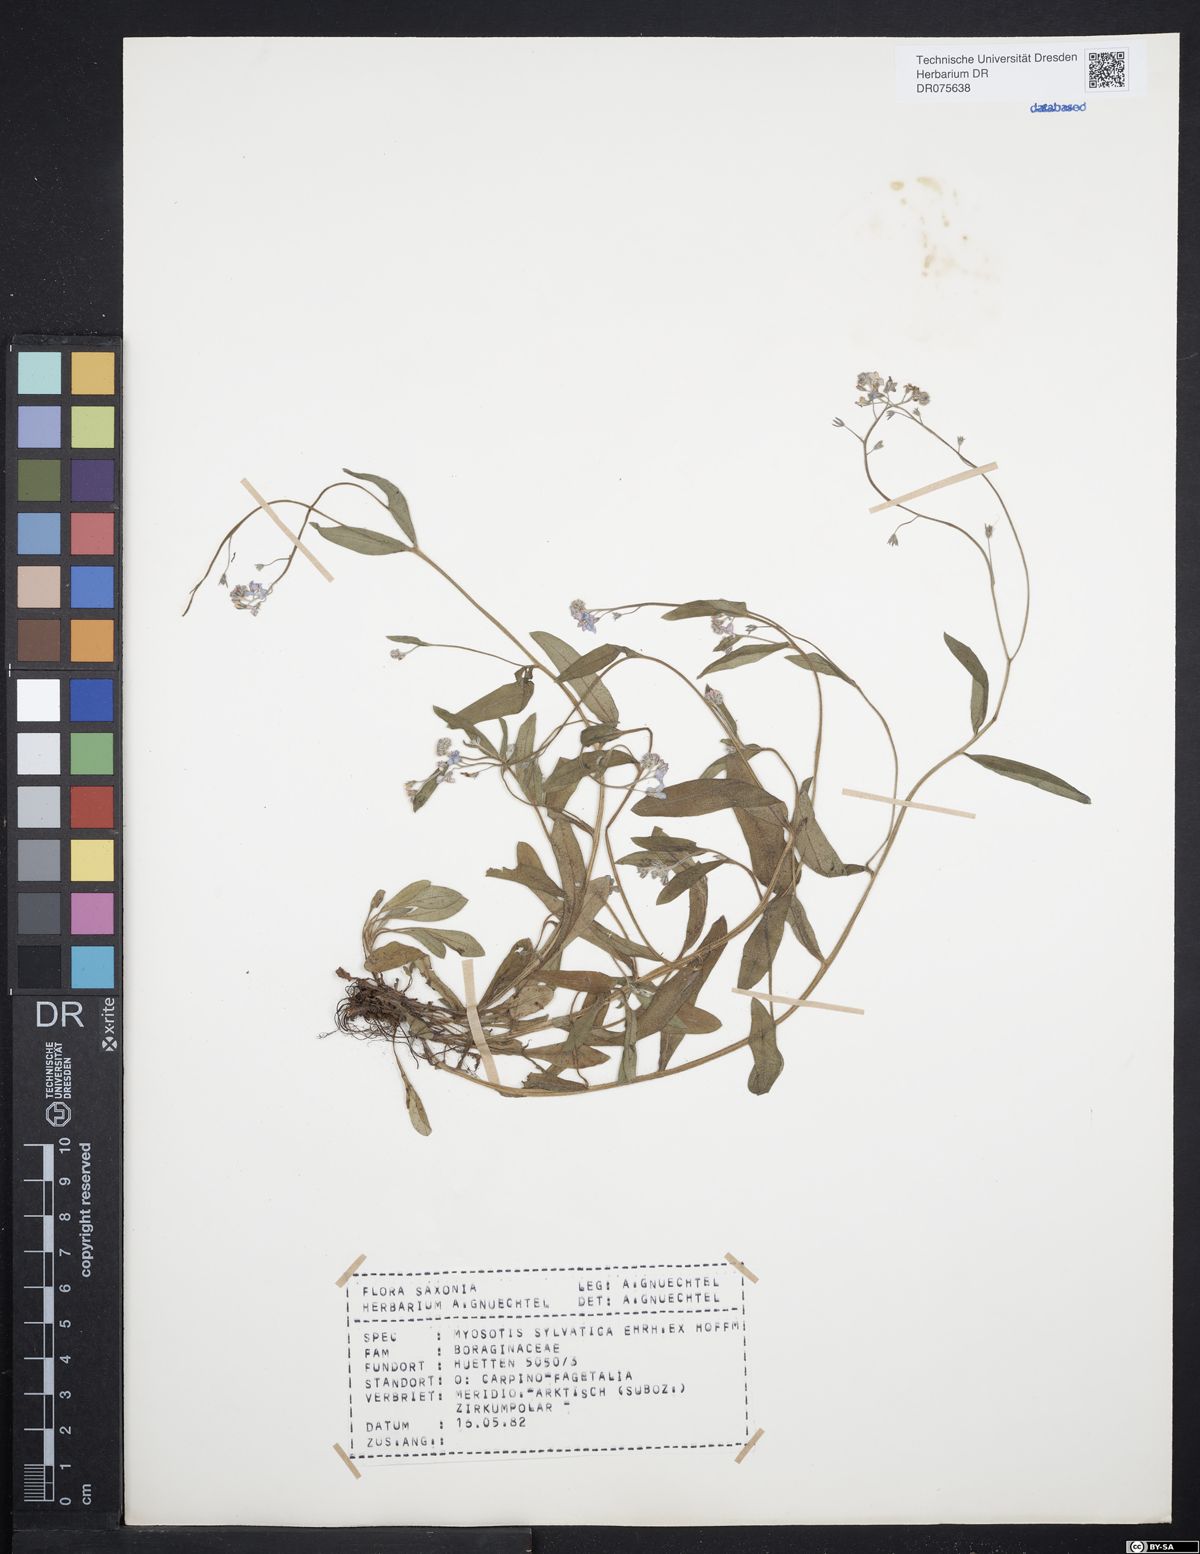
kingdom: Plantae
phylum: Tracheophyta
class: Magnoliopsida
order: Boraginales
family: Boraginaceae
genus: Myosotis
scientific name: Myosotis sylvatica
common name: Wood forget-me-not
